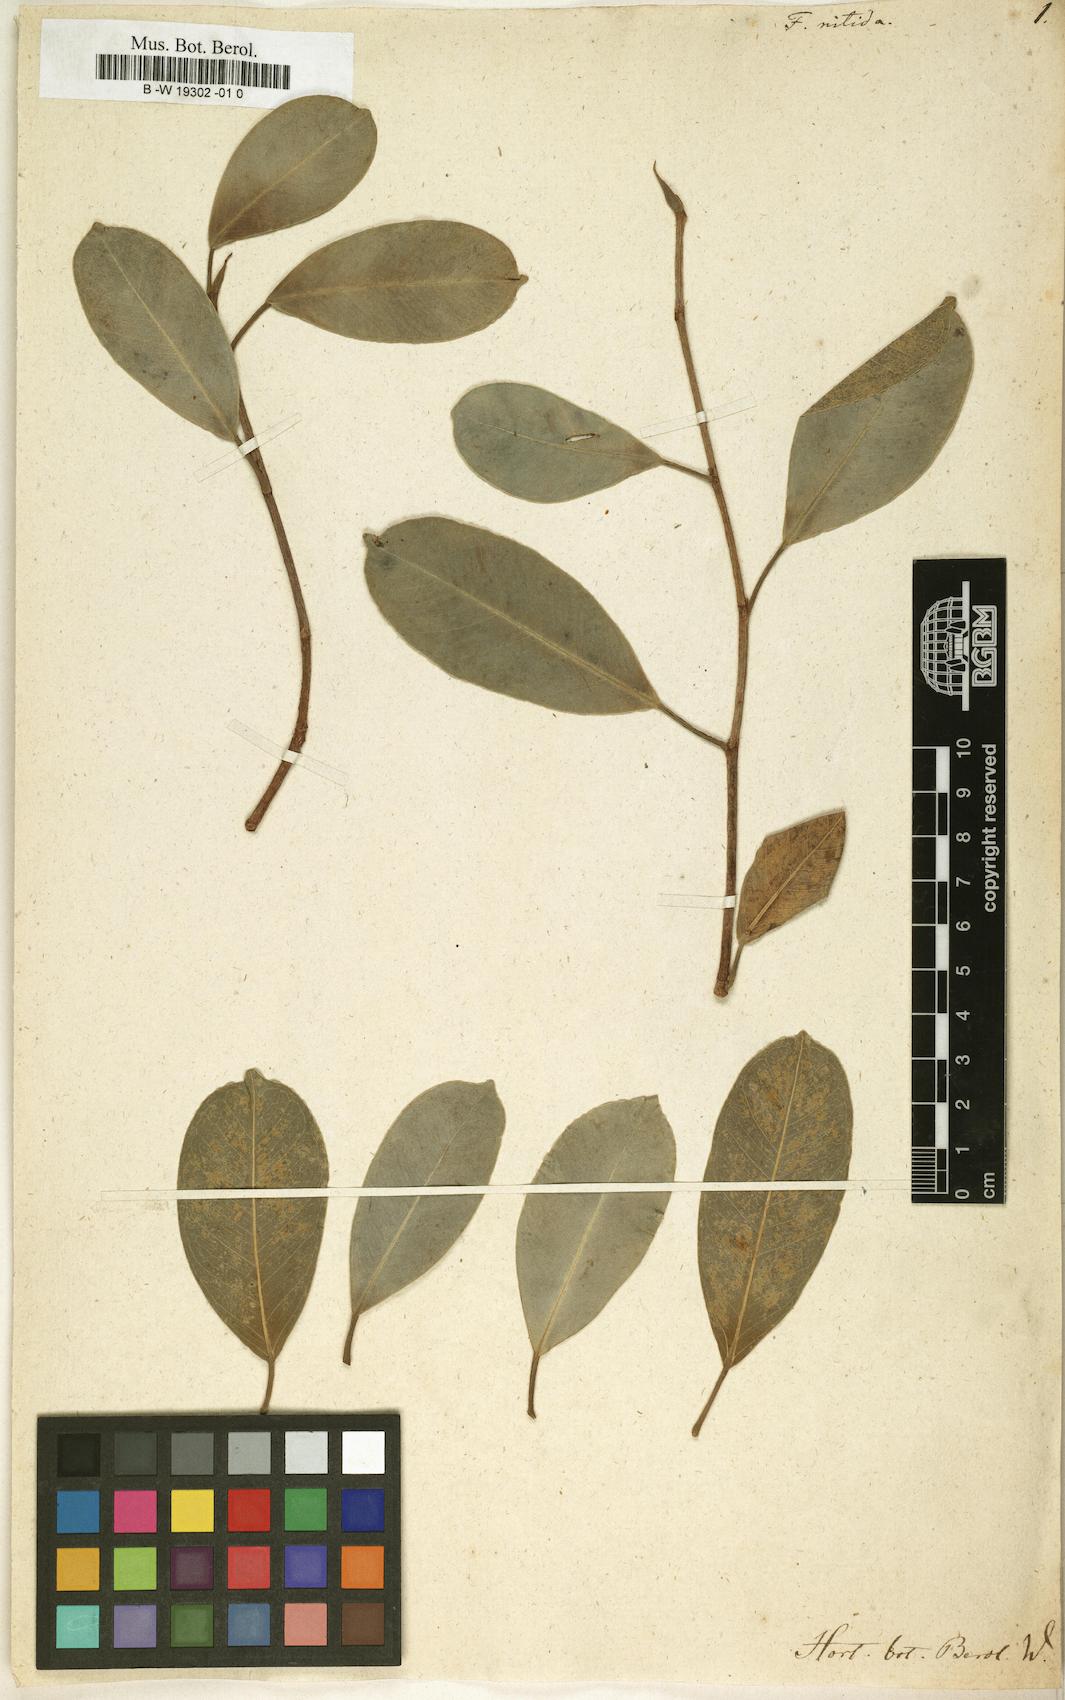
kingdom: Plantae
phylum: Tracheophyta
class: Magnoliopsida
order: Rosales
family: Moraceae
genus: Ficus
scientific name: Ficus nitida
